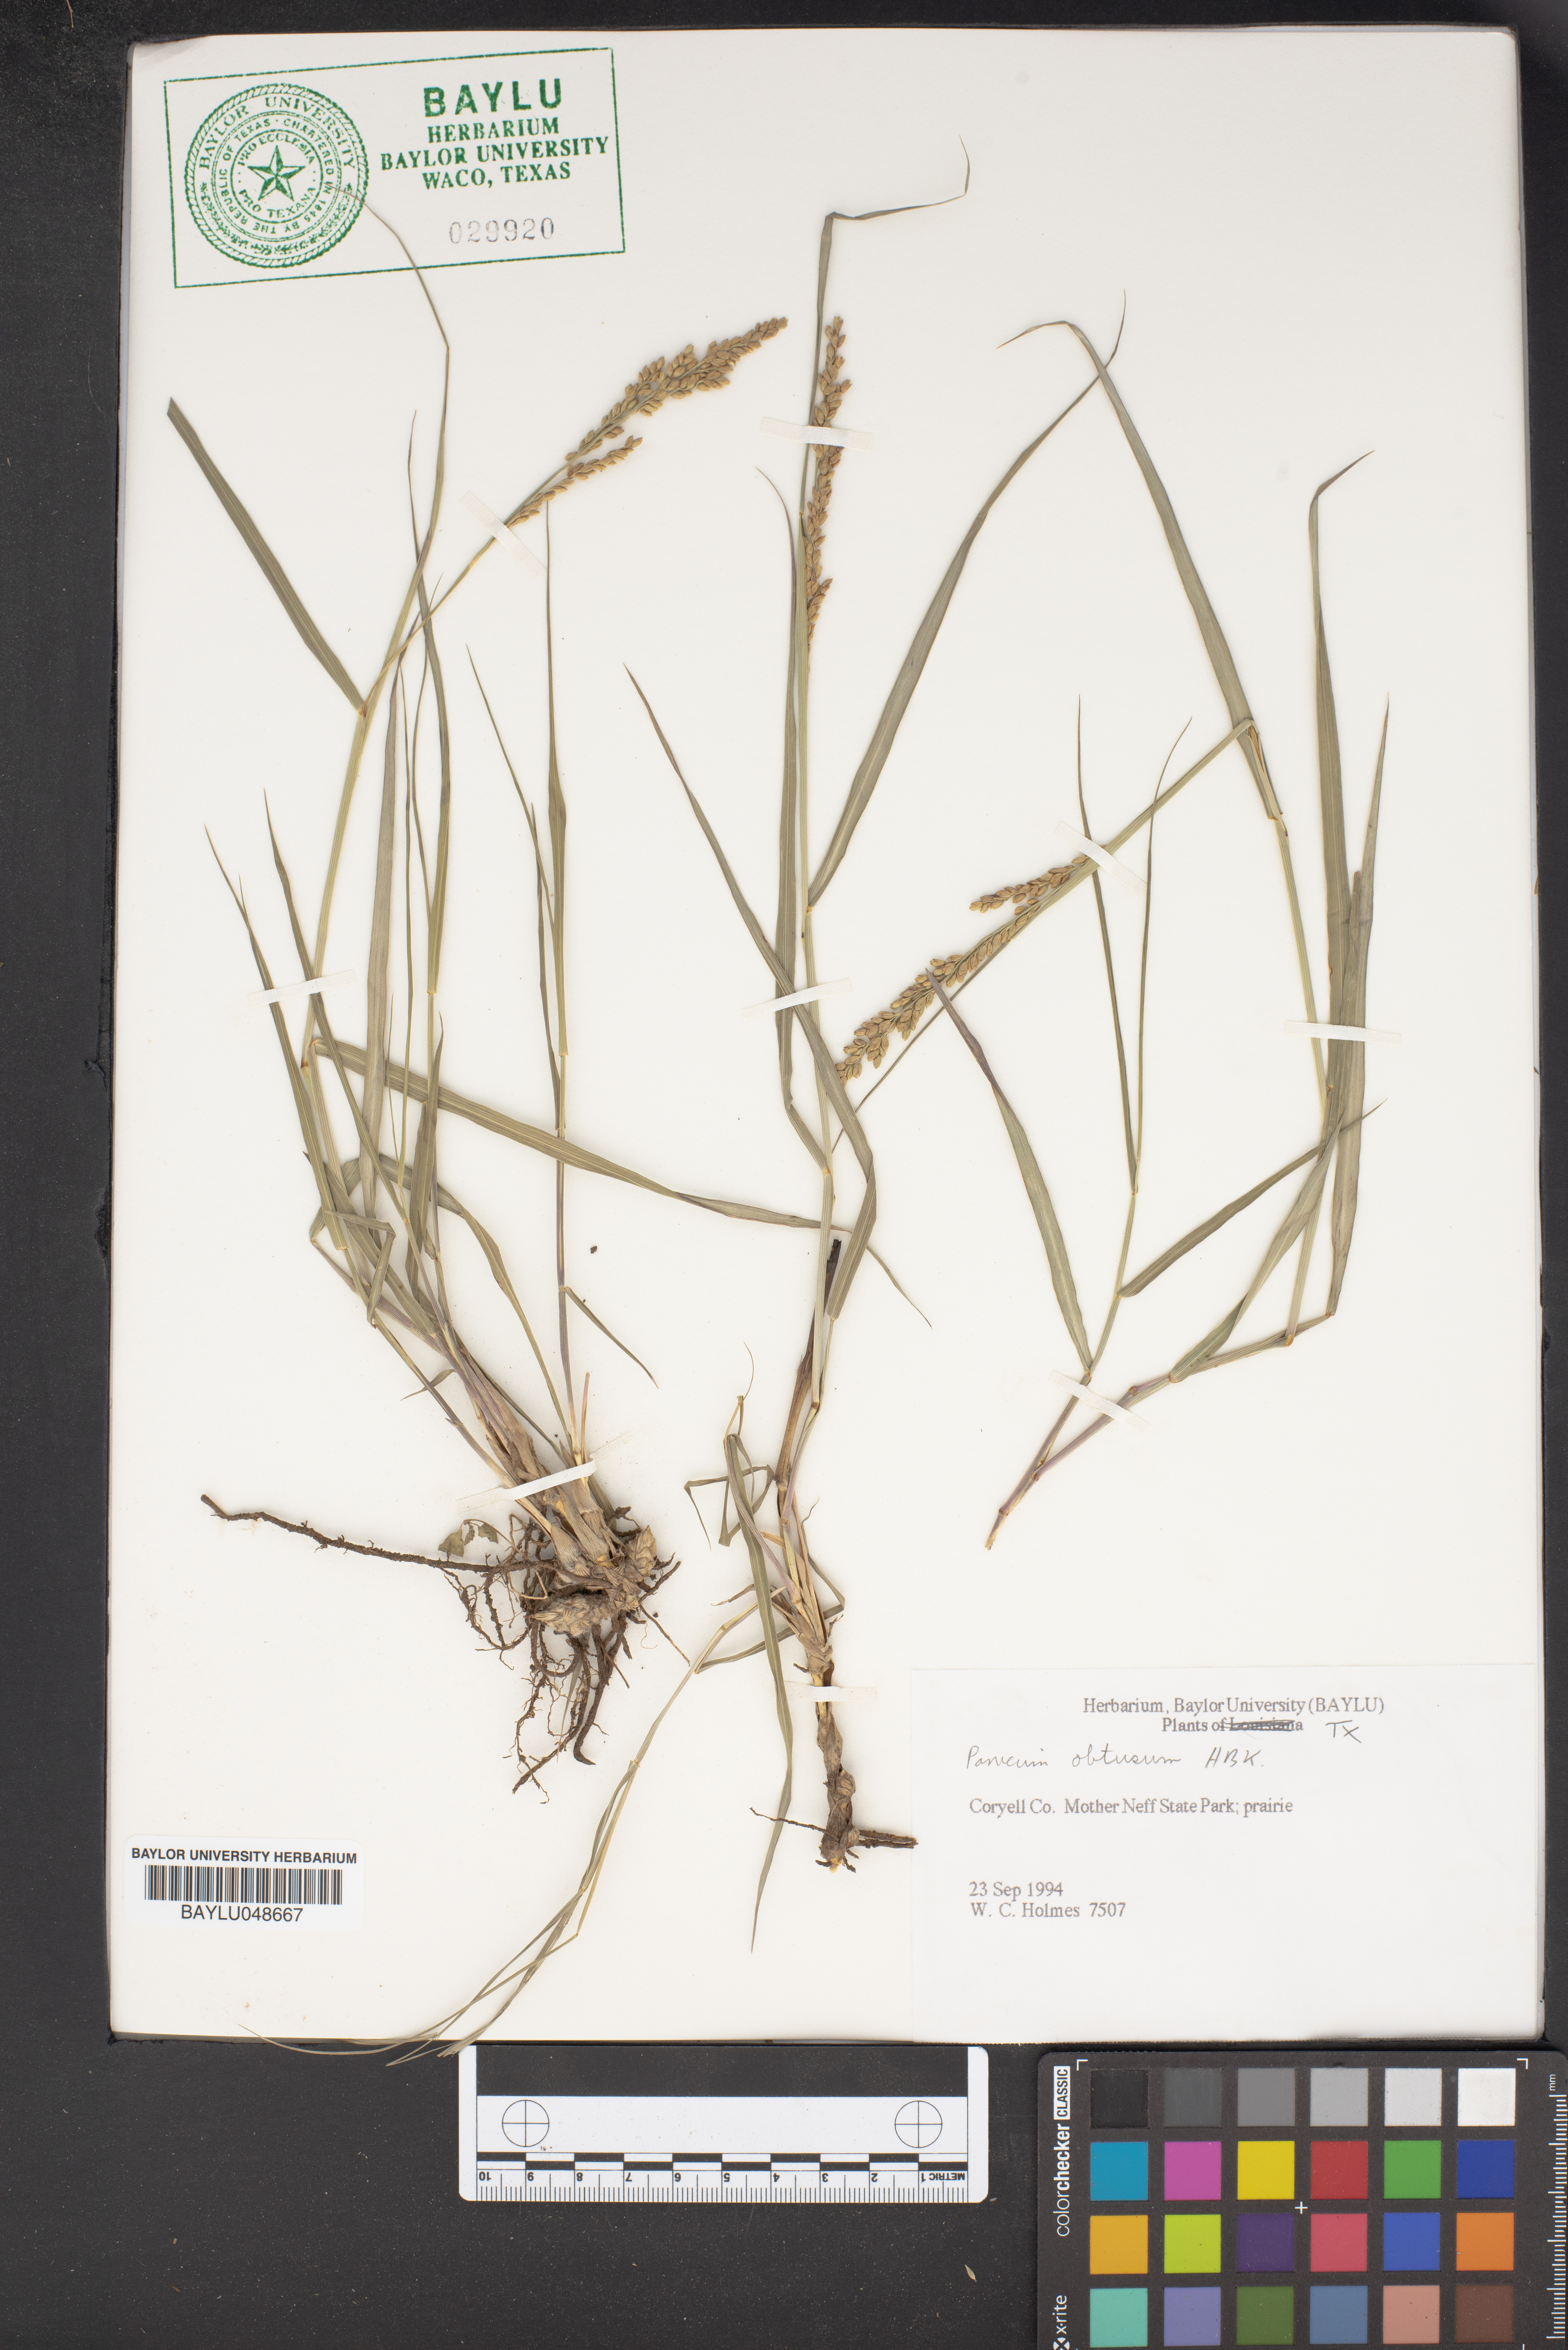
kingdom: Plantae
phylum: Tracheophyta
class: Liliopsida
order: Poales
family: Poaceae
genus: Hopia
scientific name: Hopia obtusa
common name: Vine-mesquite
